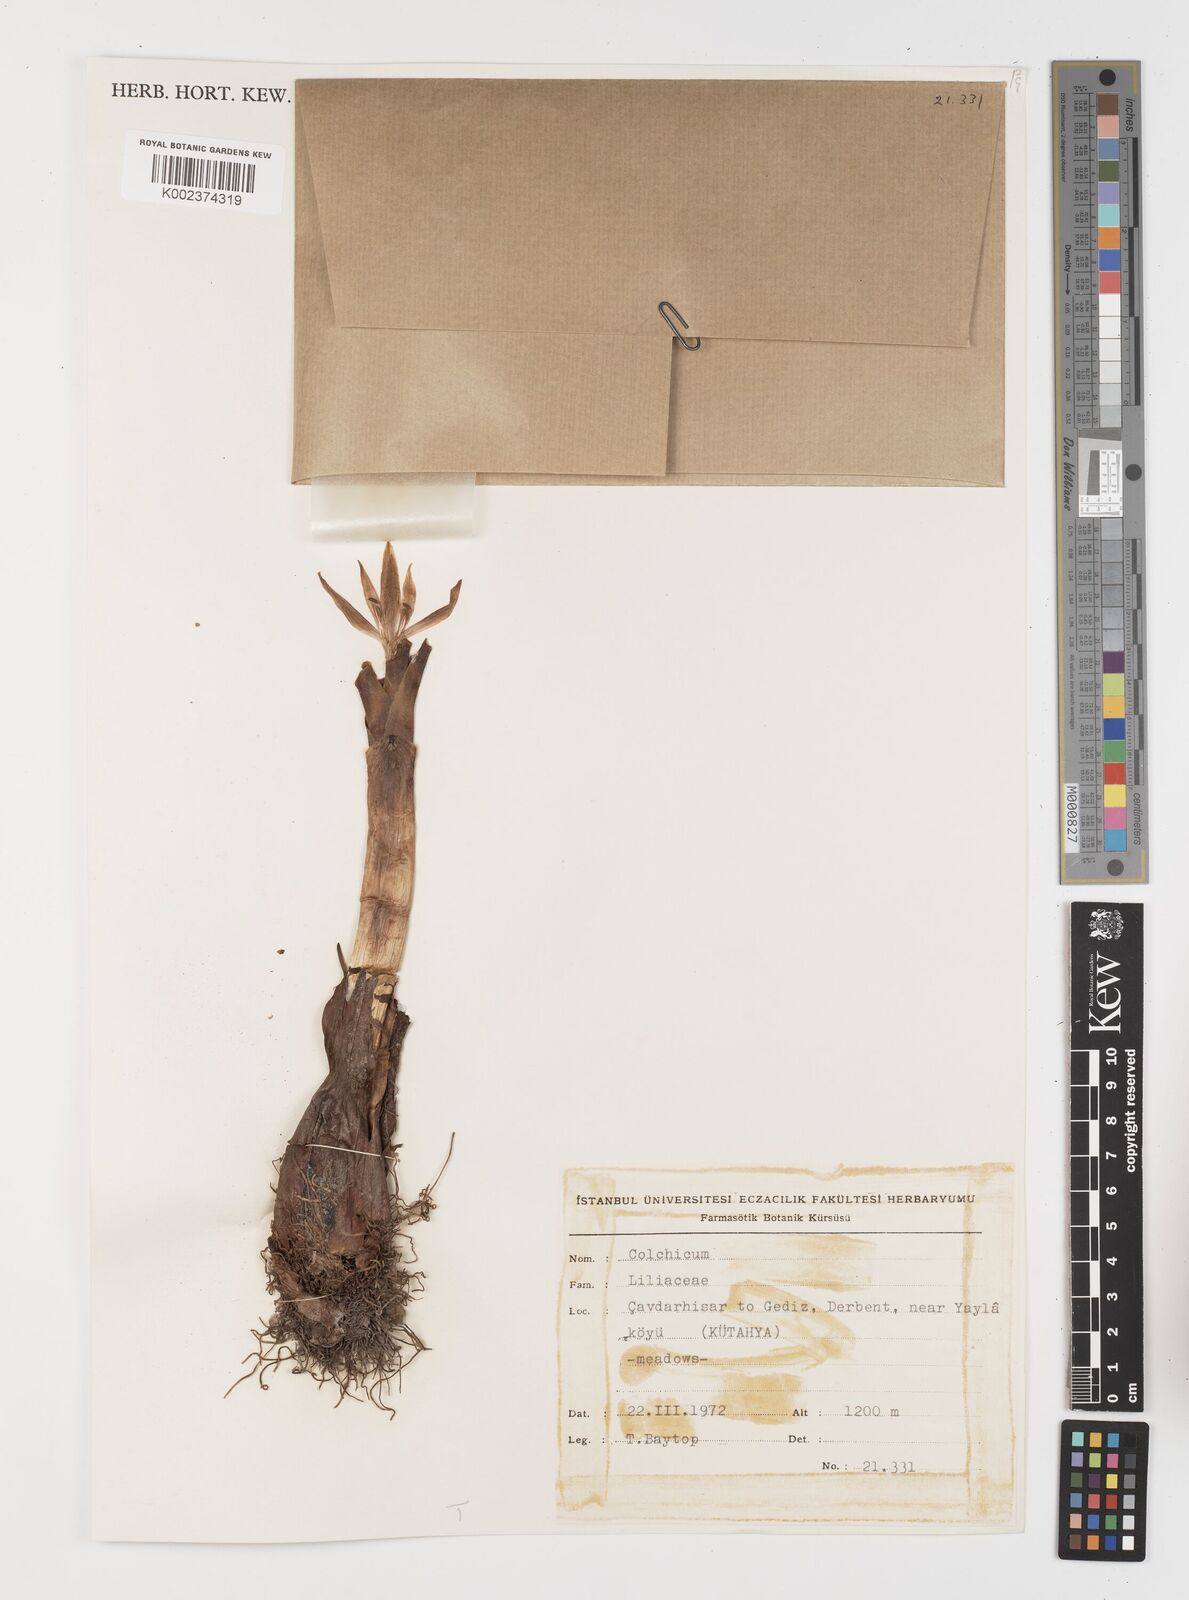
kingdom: Plantae
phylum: Tracheophyta
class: Liliopsida
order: Liliales
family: Colchicaceae
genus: Colchicum
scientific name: Colchicum
